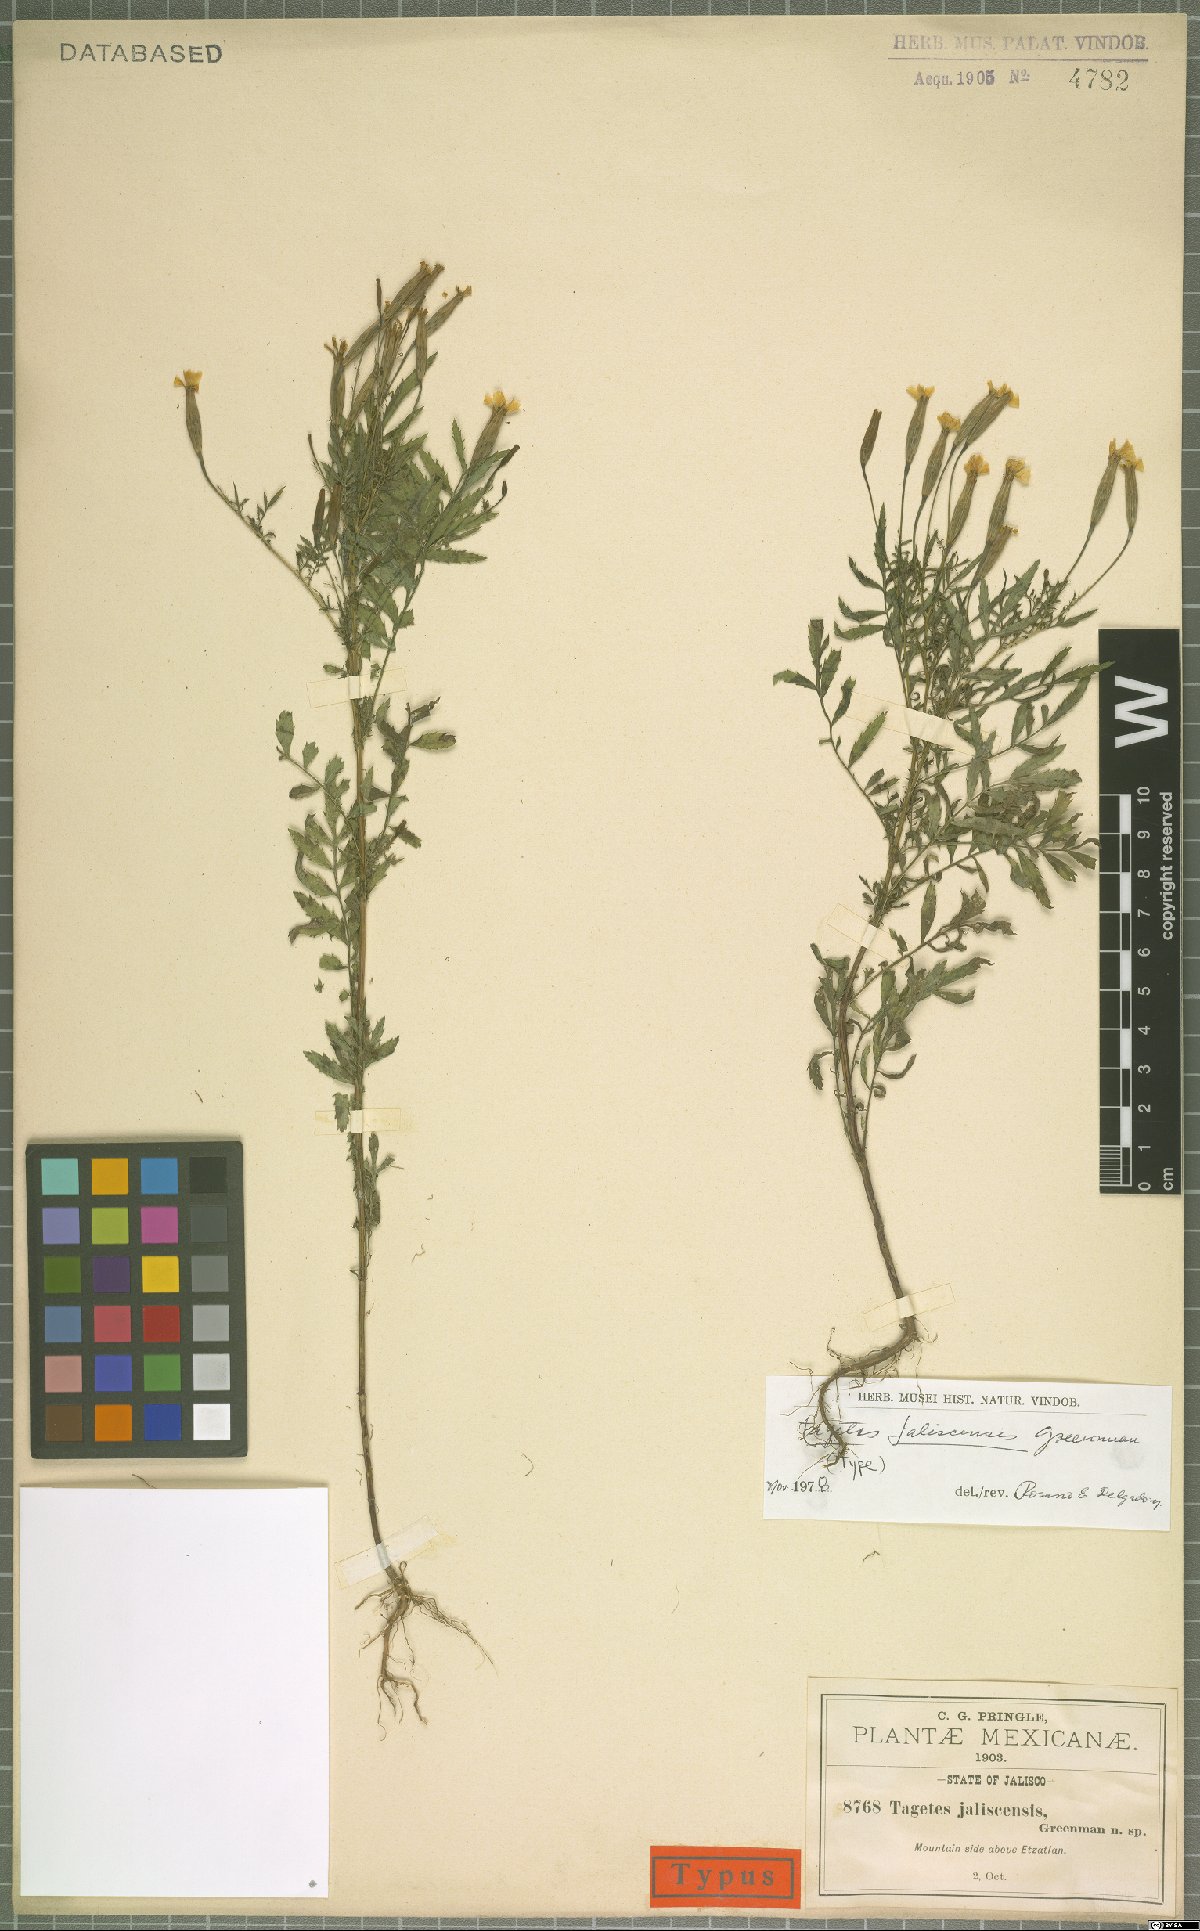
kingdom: Plantae
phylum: Tracheophyta
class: Magnoliopsida
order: Asterales
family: Asteraceae
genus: Tagetes
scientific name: Tagetes triradiata
